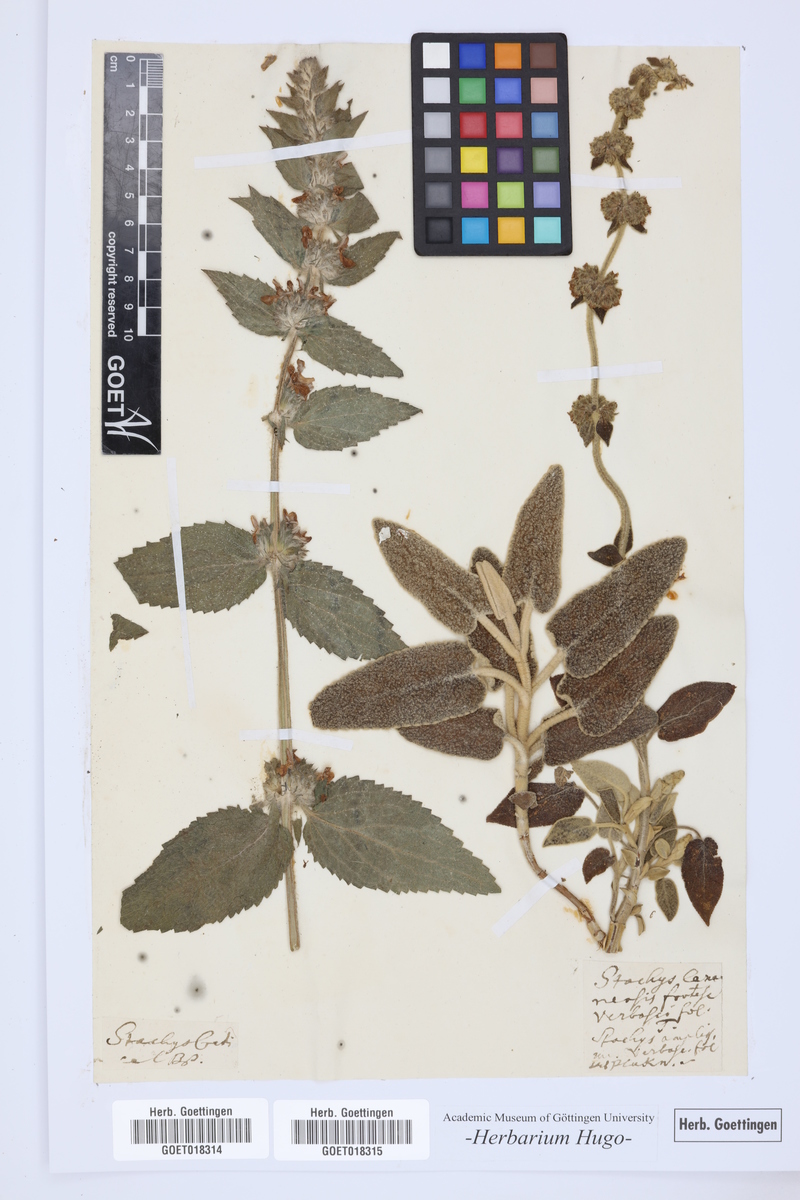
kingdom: Plantae
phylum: Tracheophyta
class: Magnoliopsida
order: Lamiales
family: Lamiaceae
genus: Stachys
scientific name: Stachys cretica
